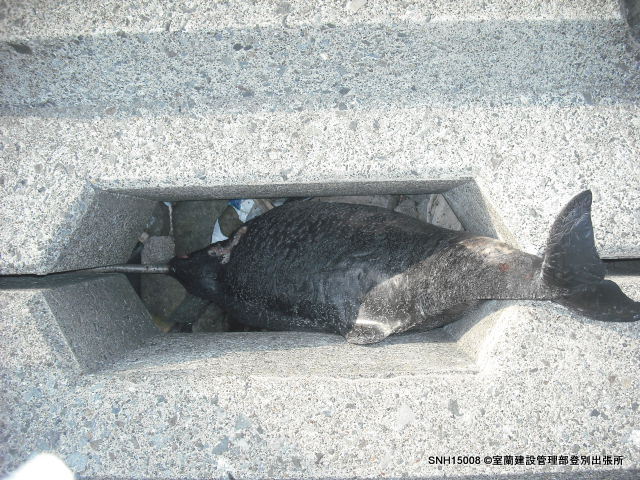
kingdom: Animalia
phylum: Chordata
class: Mammalia
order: Cetacea
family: Phocoenidae
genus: Phocoena
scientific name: Phocoena phocoena
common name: Harbour porpoise
